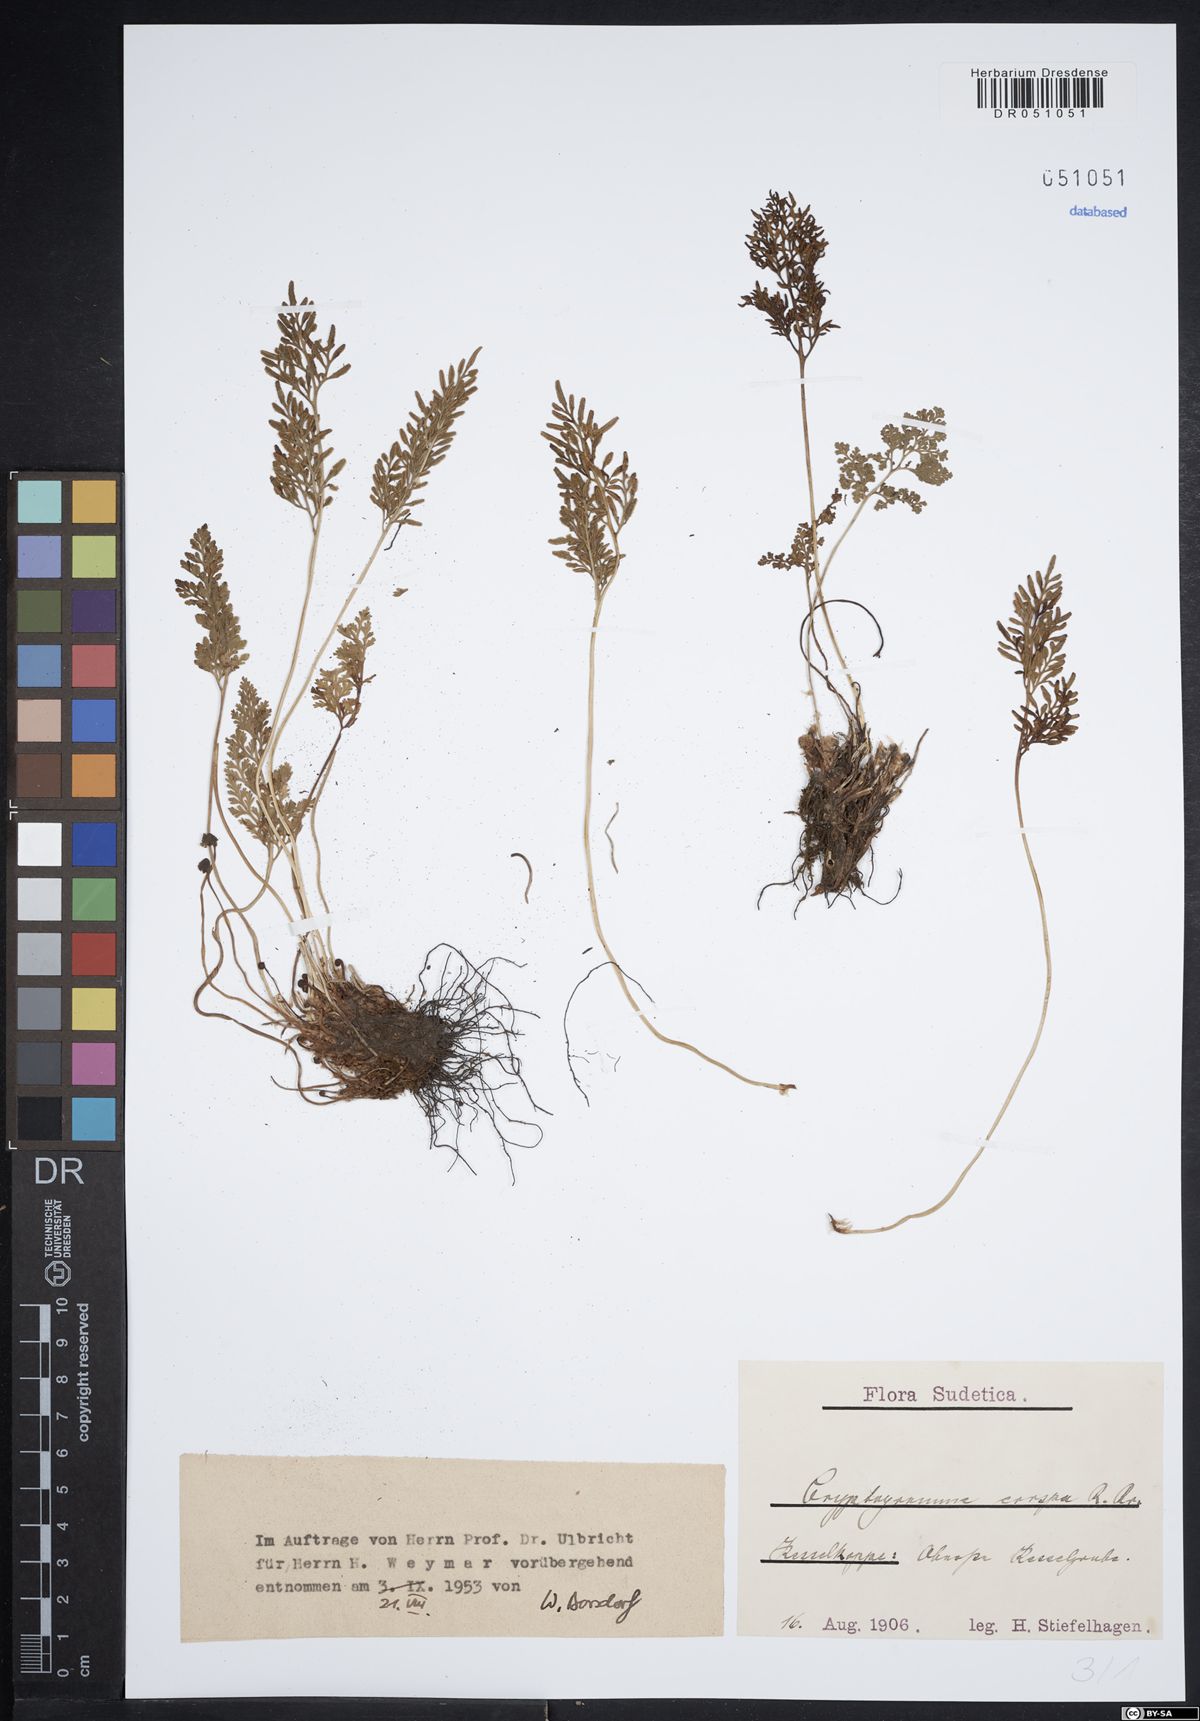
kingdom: Plantae
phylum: Tracheophyta
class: Polypodiopsida
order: Polypodiales
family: Pteridaceae
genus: Cryptogramma
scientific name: Cryptogramma crispa
